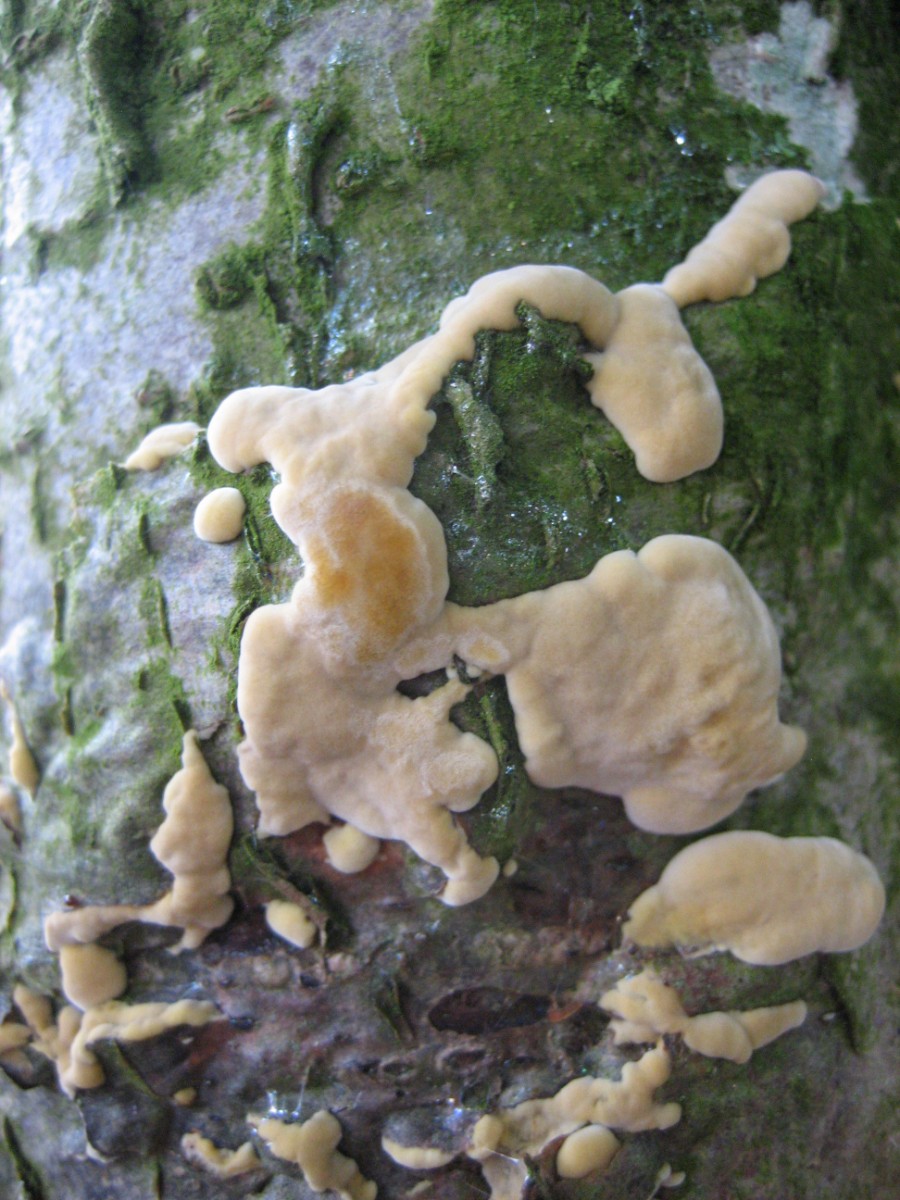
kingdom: Fungi
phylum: Basidiomycota
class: Agaricomycetes
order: Polyporales
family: Phanerochaetaceae
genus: Bjerkandera
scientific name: Bjerkandera adusta
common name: sveden sodporesvamp
